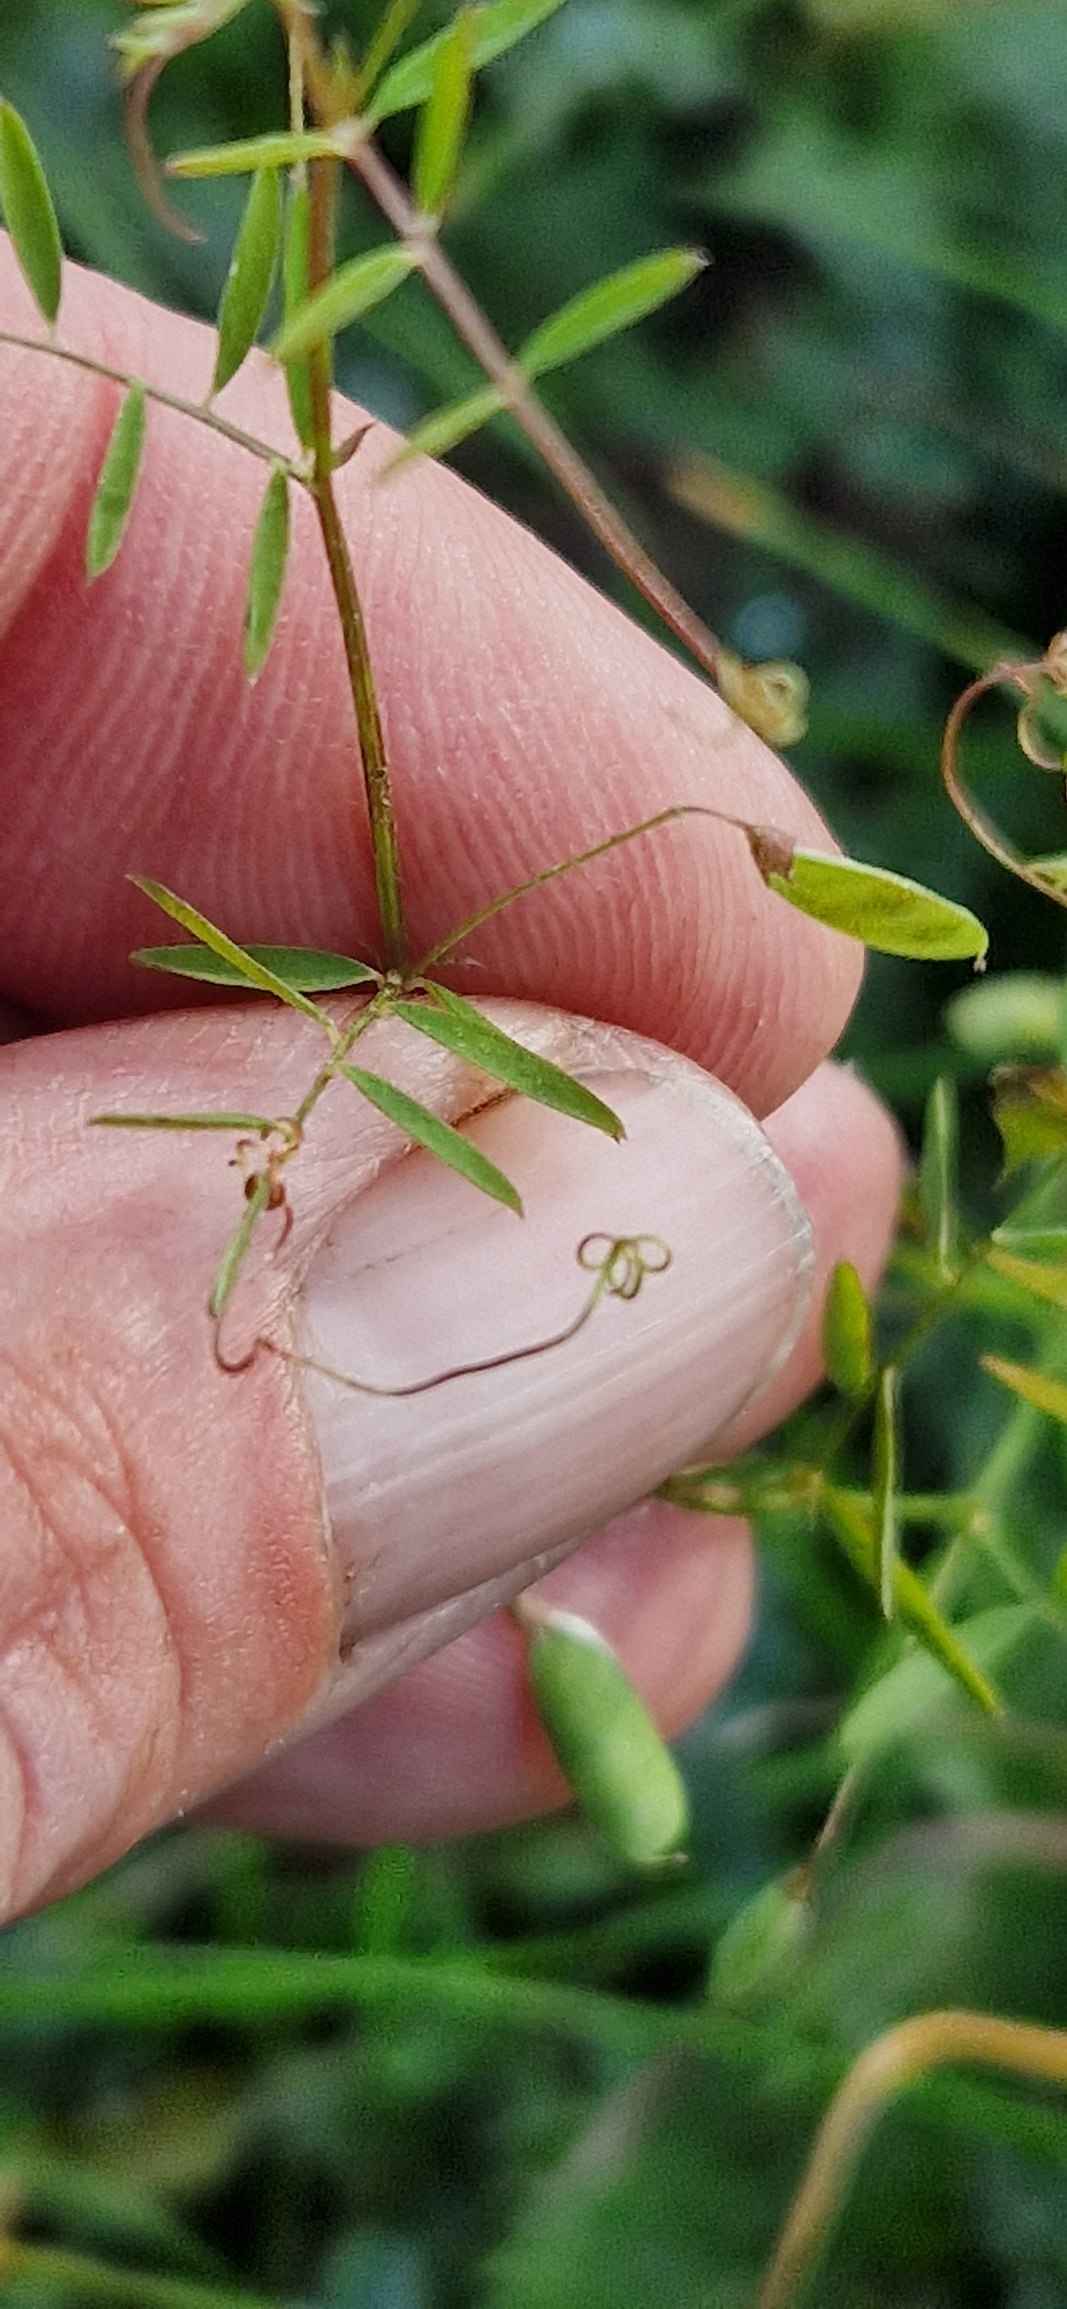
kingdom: Plantae
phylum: Tracheophyta
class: Magnoliopsida
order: Fabales
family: Fabaceae
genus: Vicia
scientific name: Vicia tetrasperma
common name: Tadder-vikke
